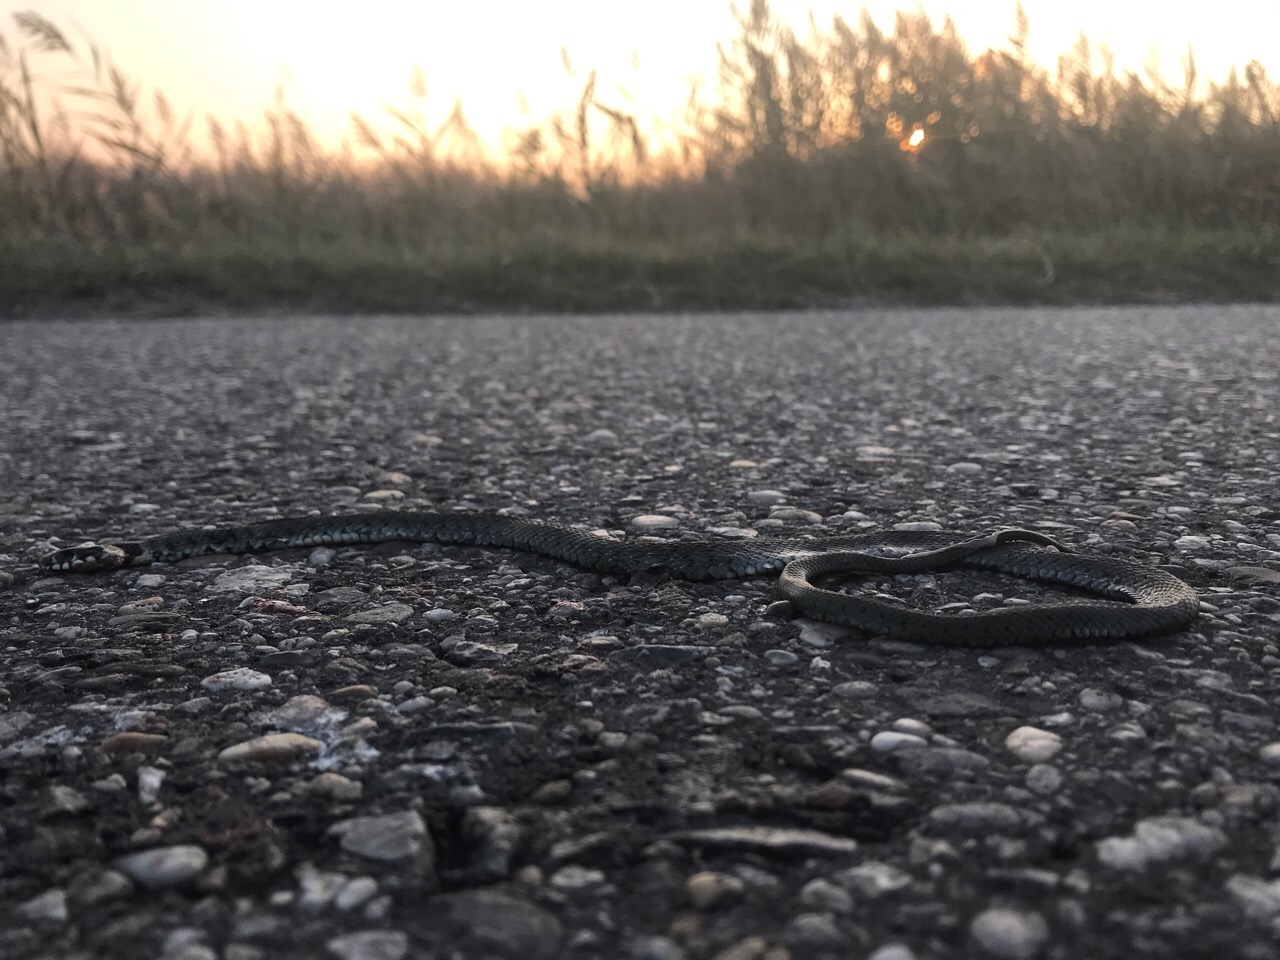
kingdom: Animalia
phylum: Chordata
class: Squamata
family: Colubridae
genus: Natrix
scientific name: Natrix natrix
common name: Grass snake
